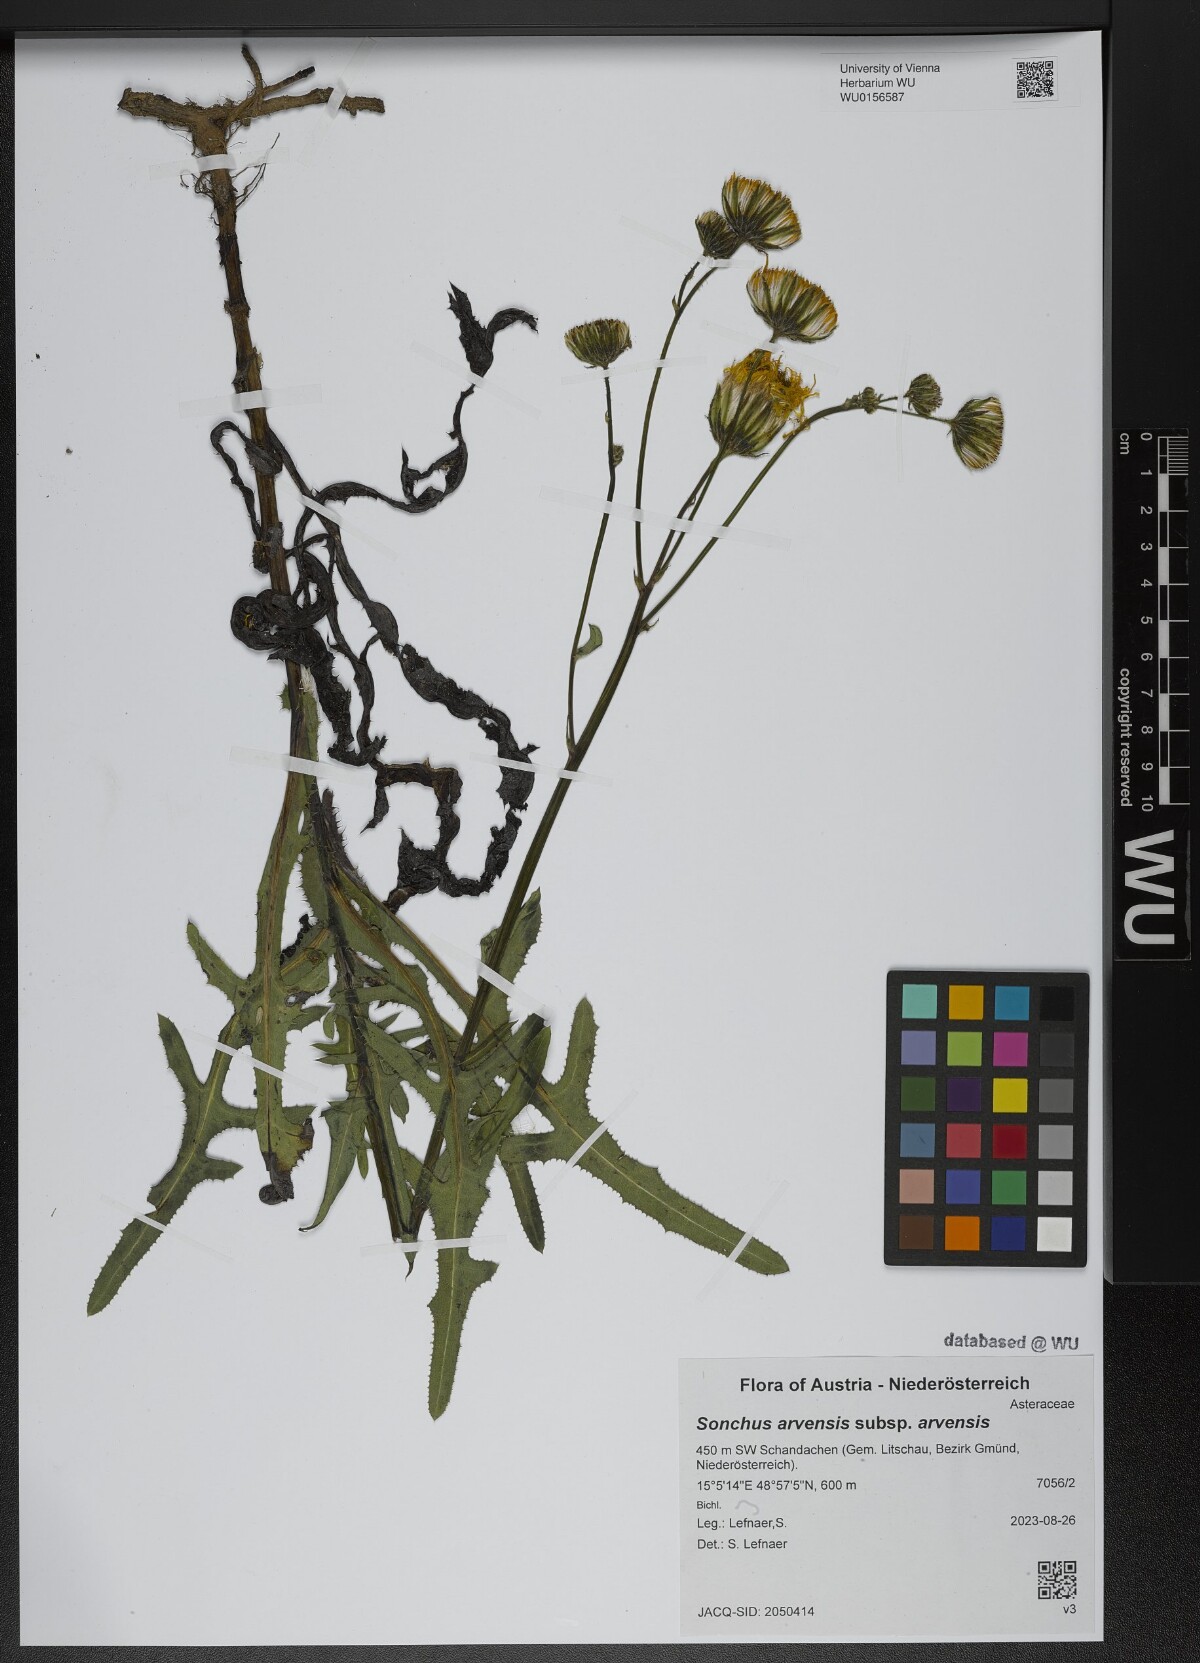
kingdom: Plantae
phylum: Tracheophyta
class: Magnoliopsida
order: Asterales
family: Asteraceae
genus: Sonchus
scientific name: Sonchus arvensis
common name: Perennial sow-thistle
